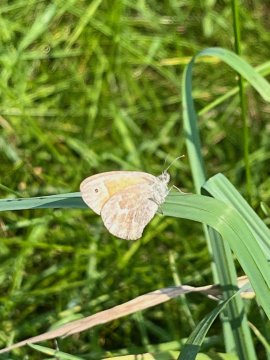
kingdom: Animalia
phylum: Arthropoda
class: Insecta
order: Lepidoptera
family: Nymphalidae
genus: Coenonympha
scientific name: Coenonympha tullia
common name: Large Heath
